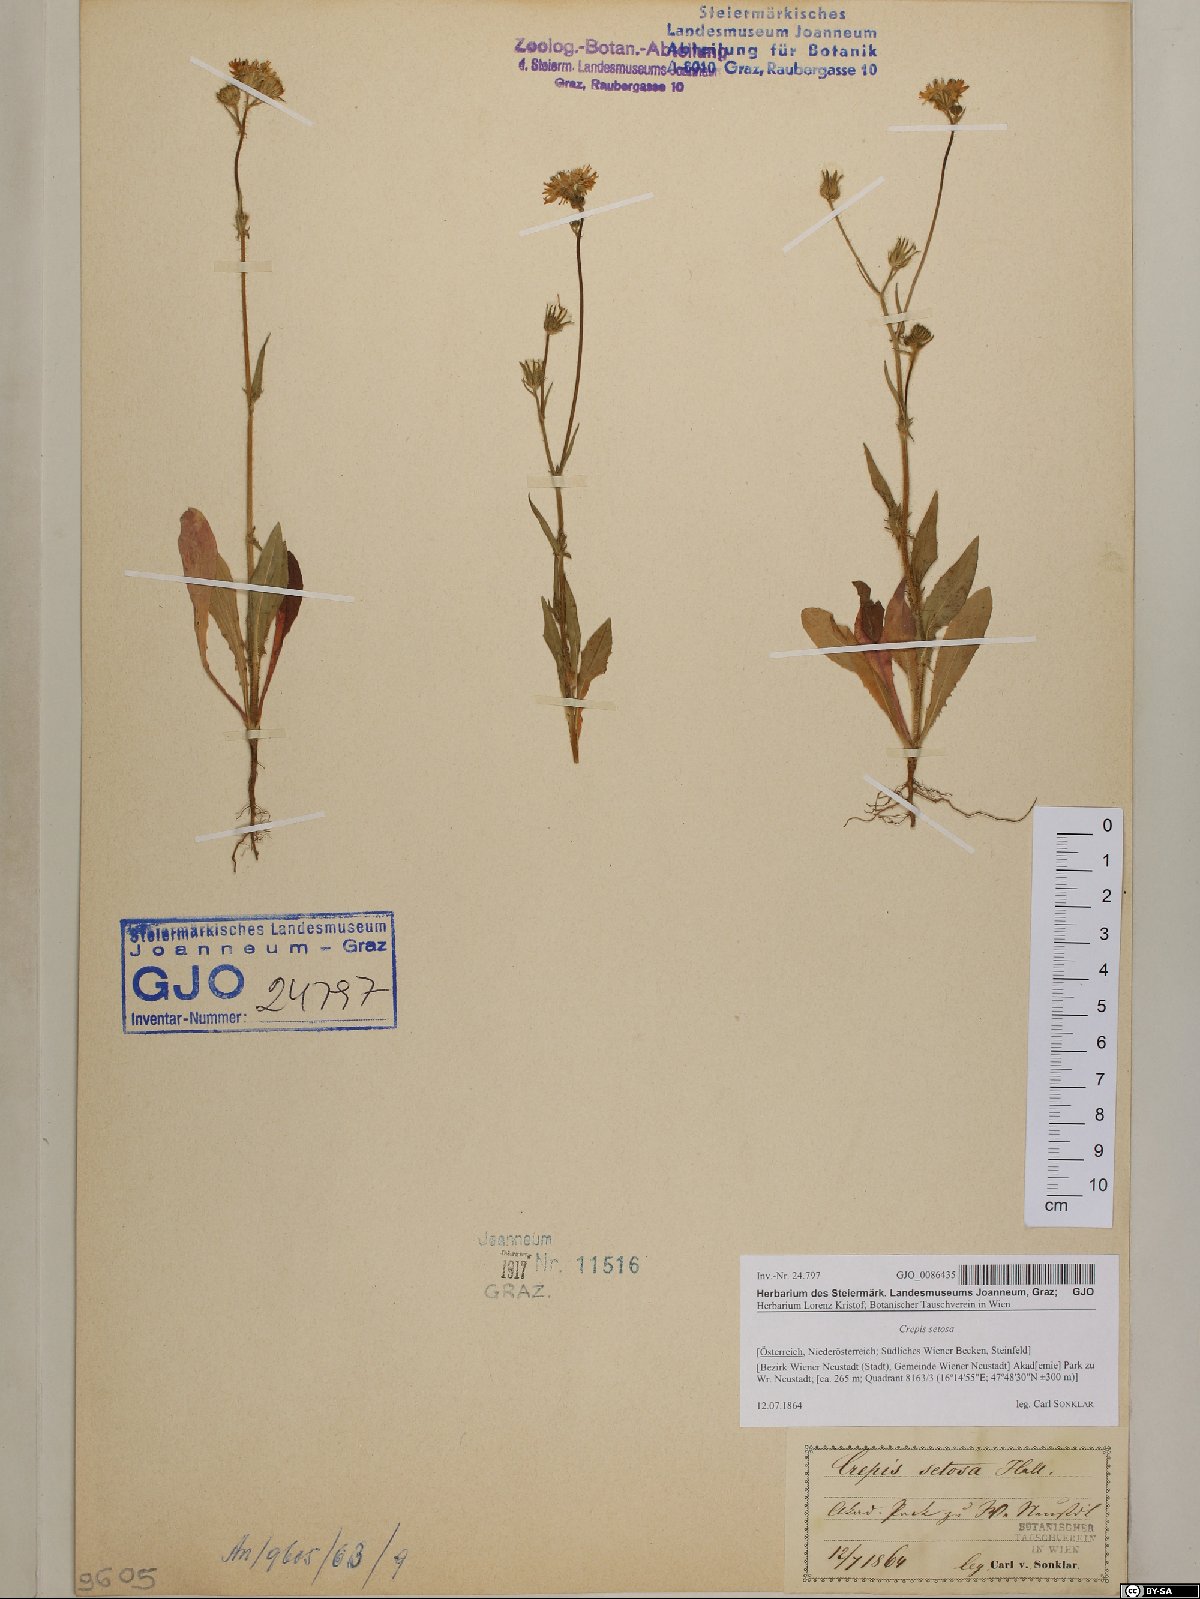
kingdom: Plantae
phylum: Tracheophyta
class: Magnoliopsida
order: Asterales
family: Asteraceae
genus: Crepis
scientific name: Crepis setosa
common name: Bristly hawk's-beard
